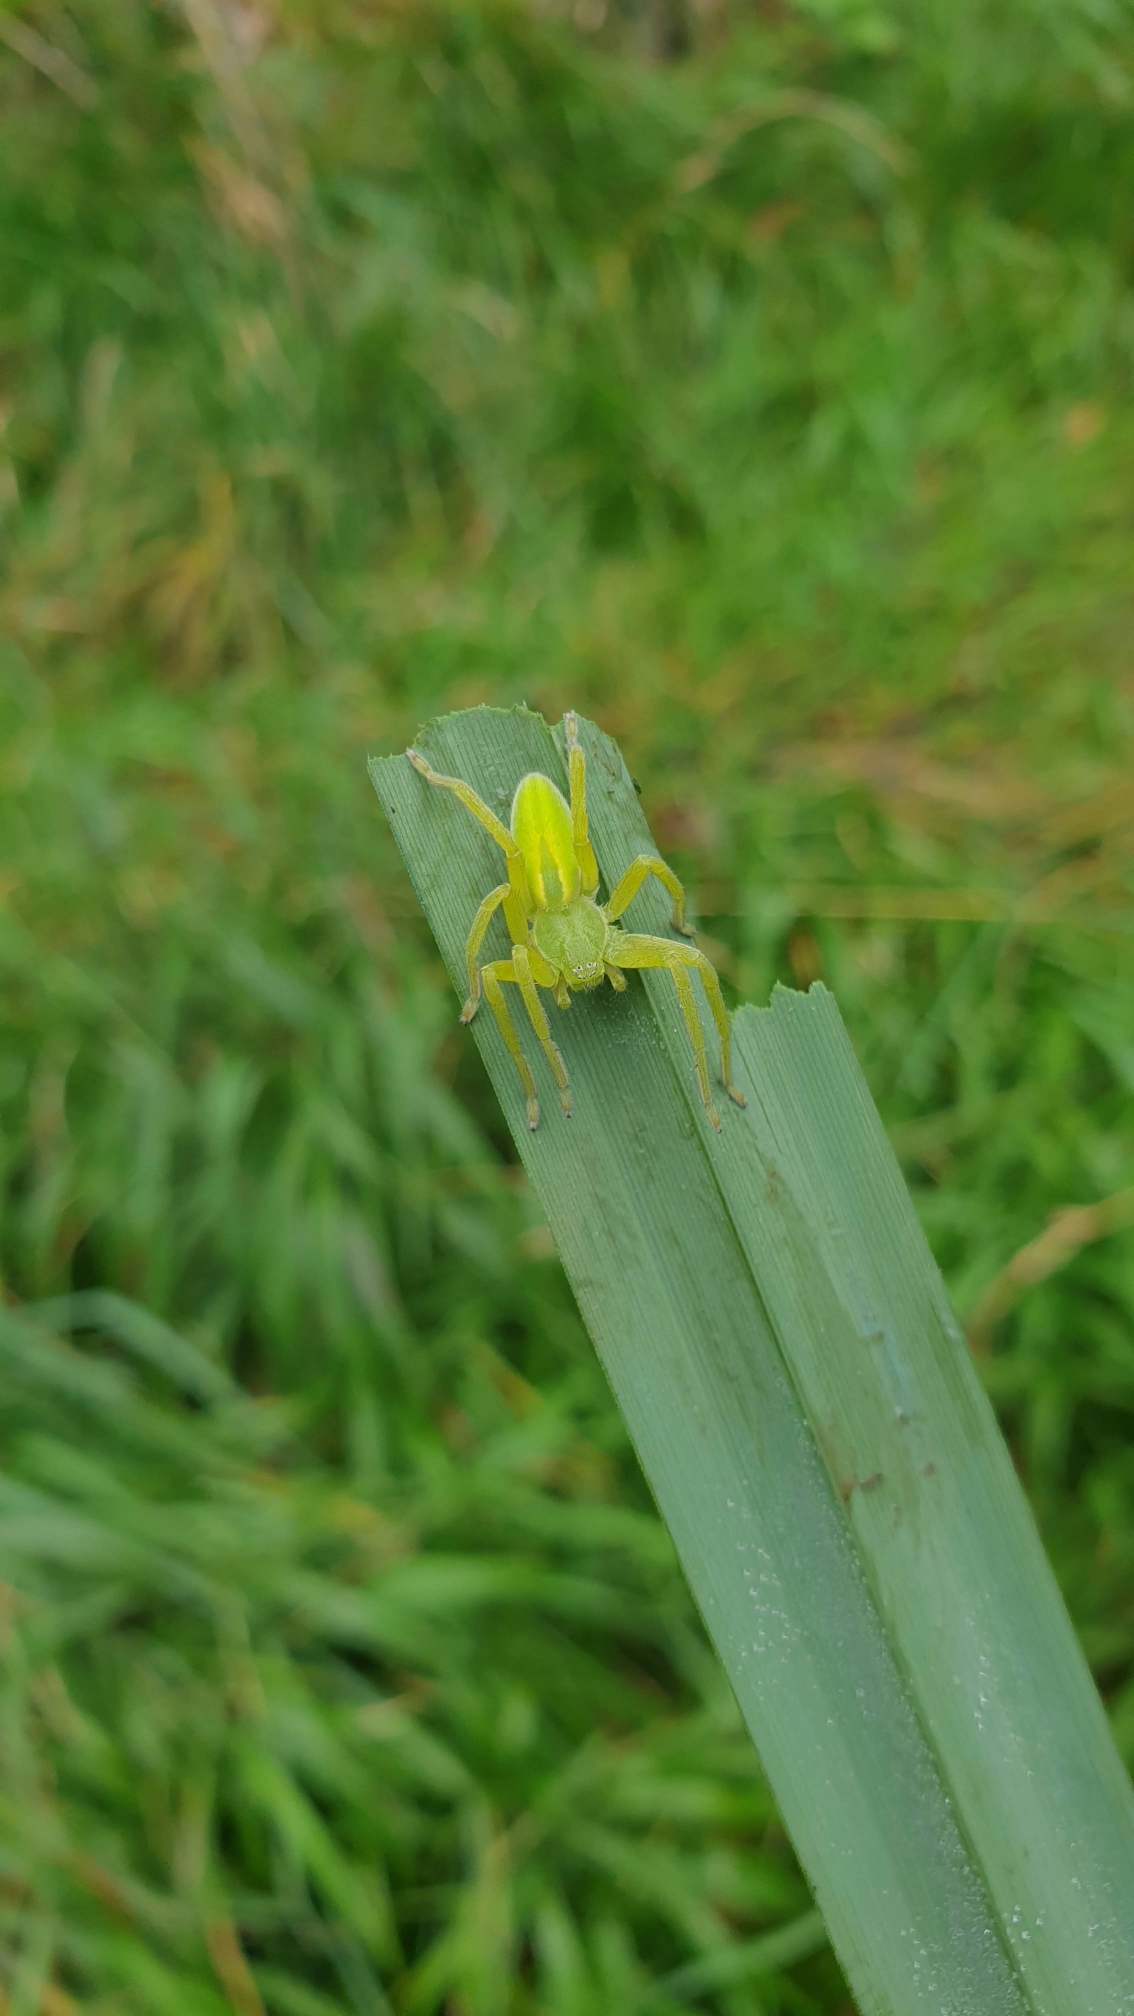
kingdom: Animalia
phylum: Arthropoda
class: Arachnida
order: Araneae
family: Sparassidae
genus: Micrommata
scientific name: Micrommata virescens
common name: Smaragdedderkop
